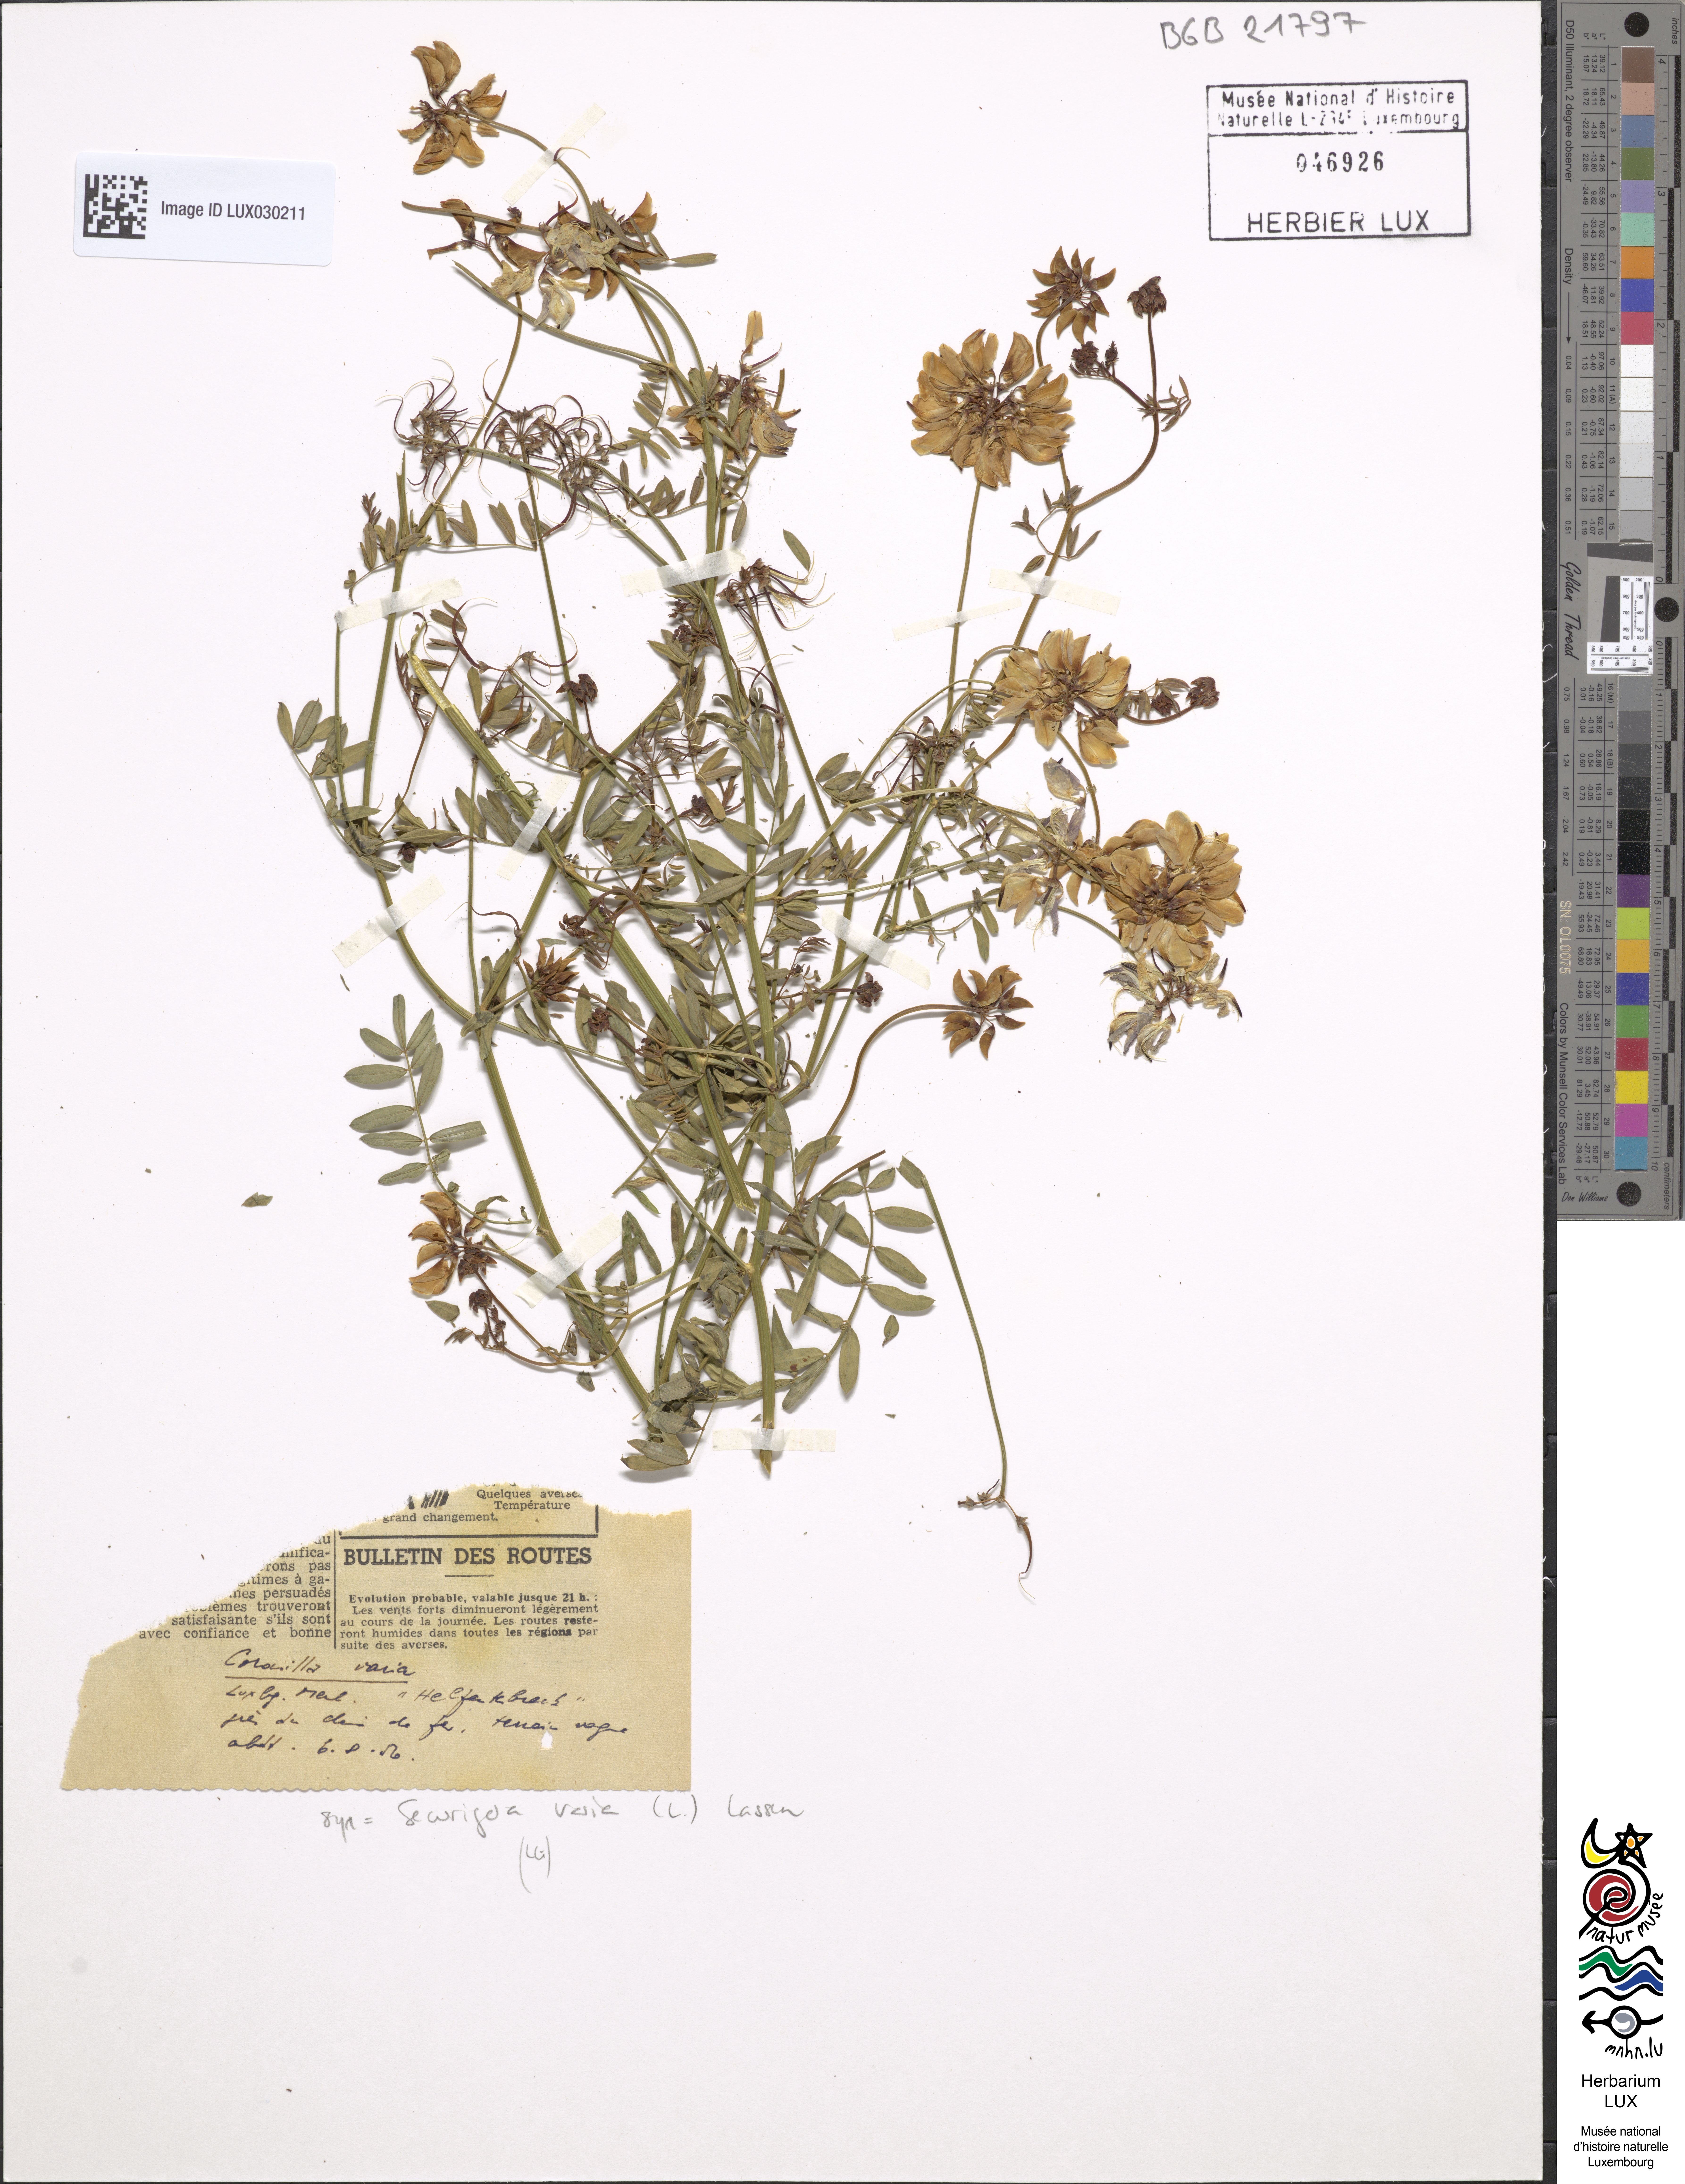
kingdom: Plantae
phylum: Tracheophyta
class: Magnoliopsida
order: Fabales
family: Fabaceae
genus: Coronilla
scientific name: Coronilla varia
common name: Crownvetch
